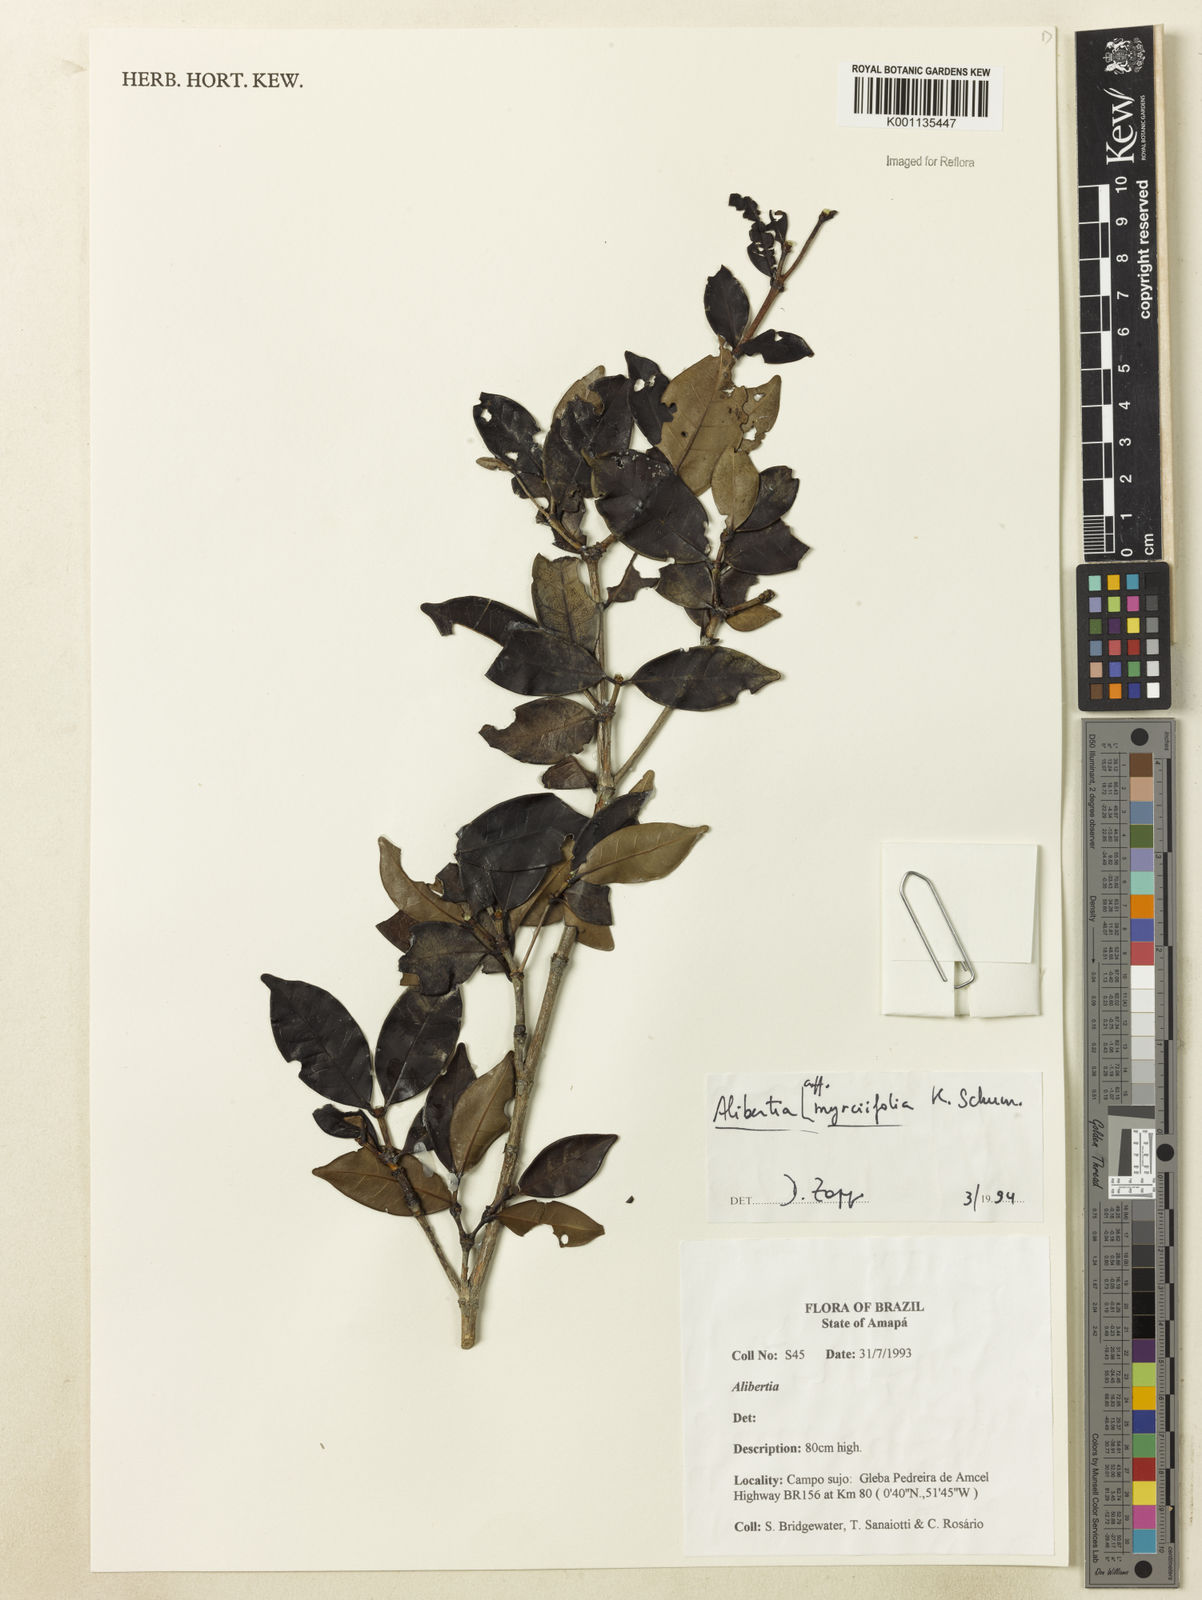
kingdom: Plantae
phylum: Tracheophyta
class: Magnoliopsida
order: Gentianales
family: Rubiaceae
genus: Cordiera
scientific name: Cordiera myrciifolia
